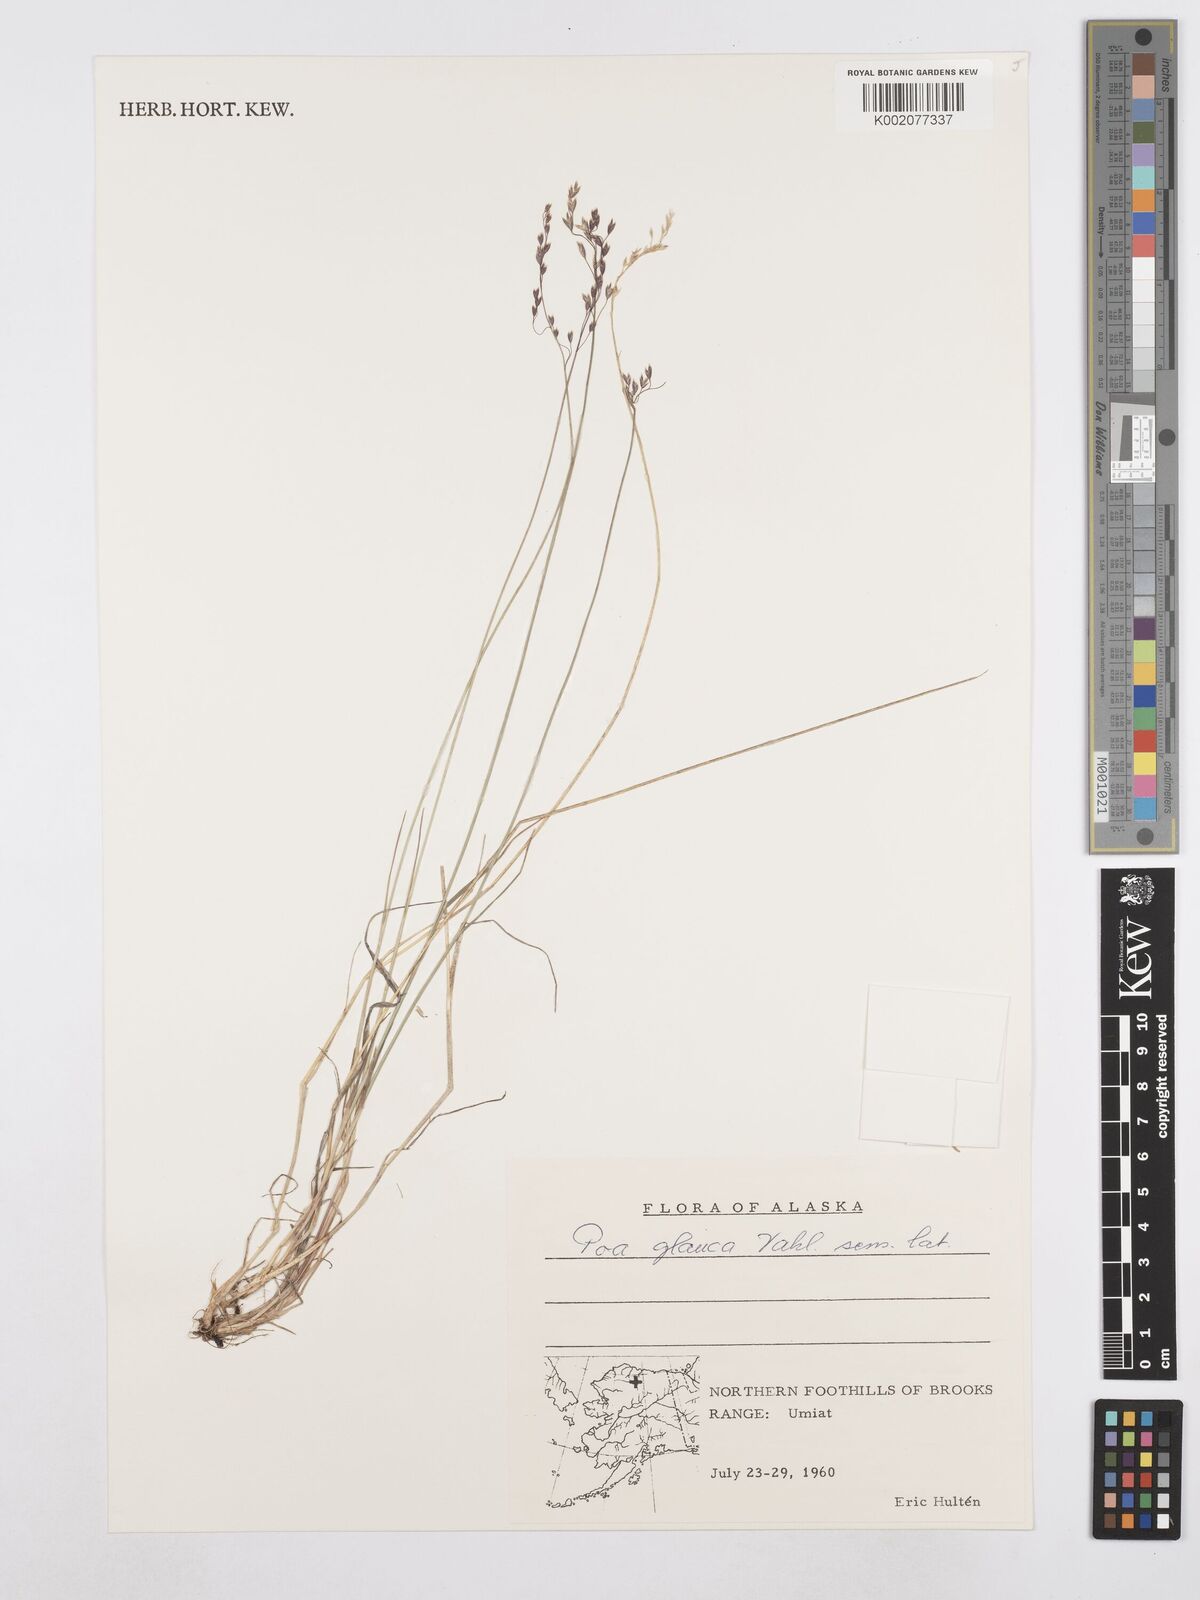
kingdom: Plantae
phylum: Tracheophyta
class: Liliopsida
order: Poales
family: Poaceae
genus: Poa
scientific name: Poa glauca
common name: Glaucous bluegrass
